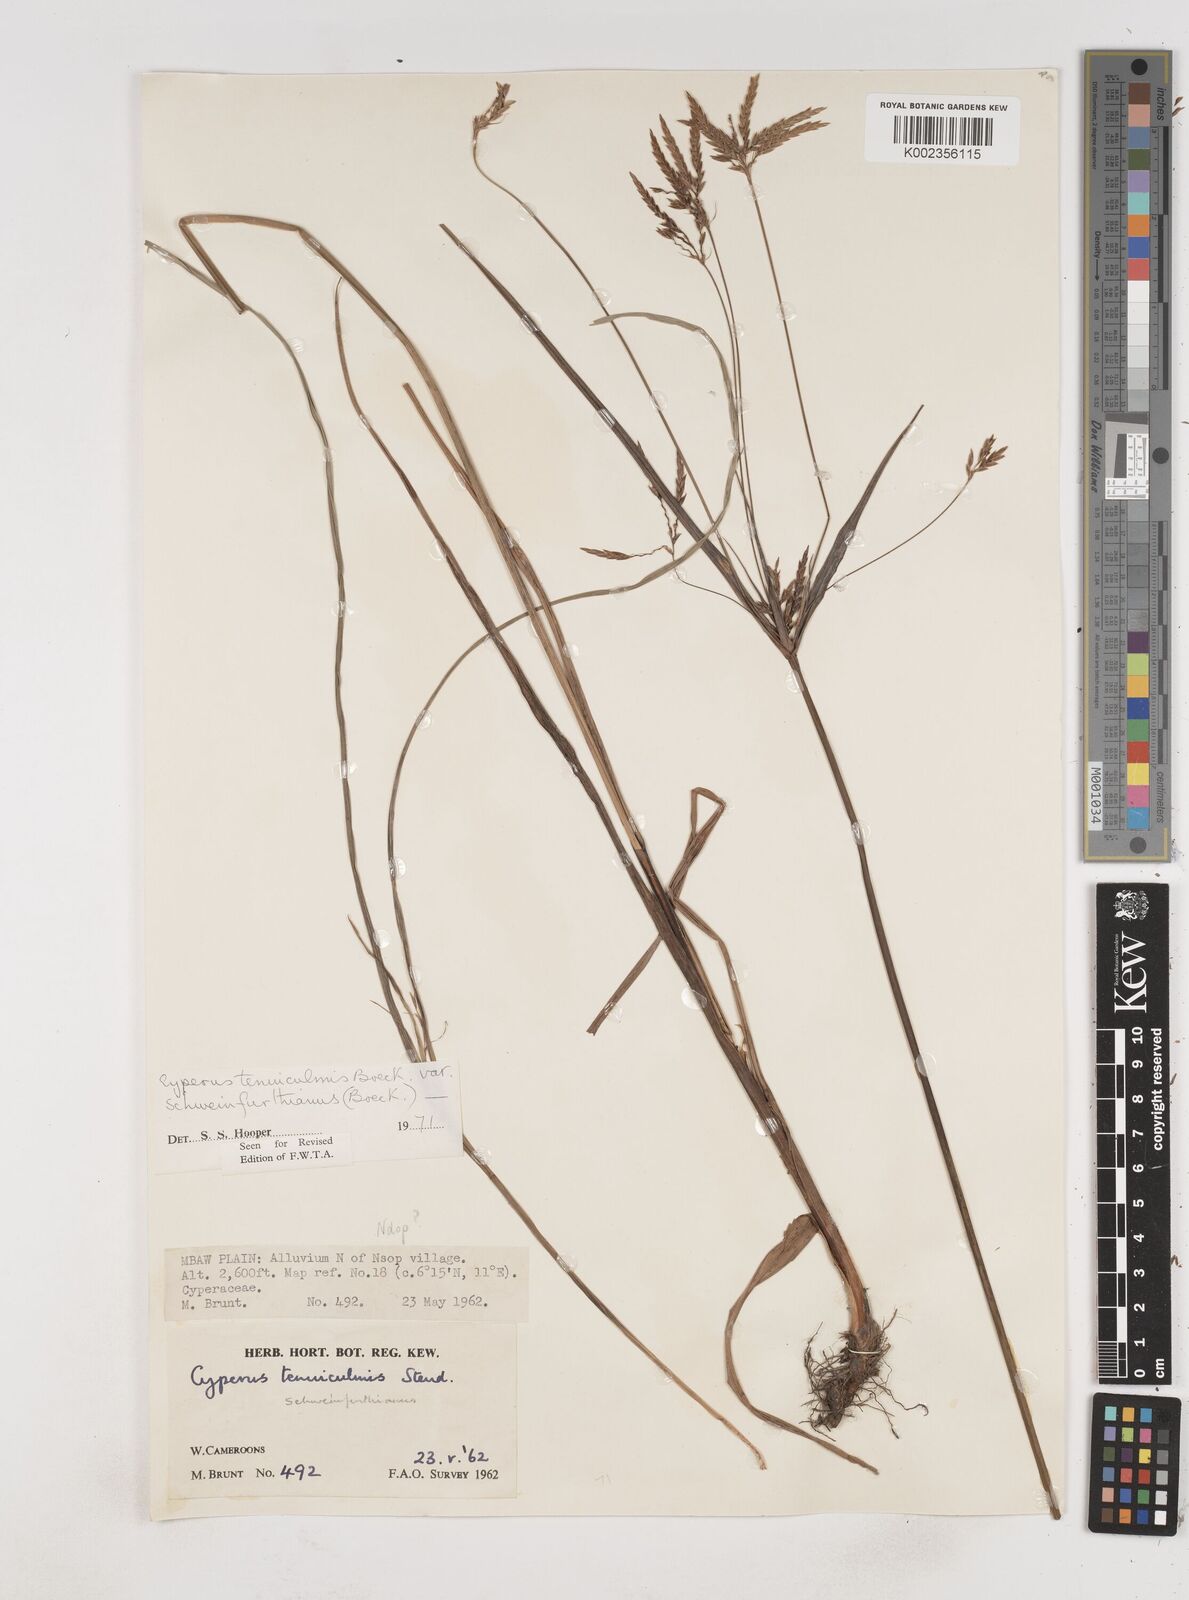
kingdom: Plantae
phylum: Tracheophyta
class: Liliopsida
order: Poales
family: Cyperaceae
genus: Cyperus
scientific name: Cyperus tenuiculmis
